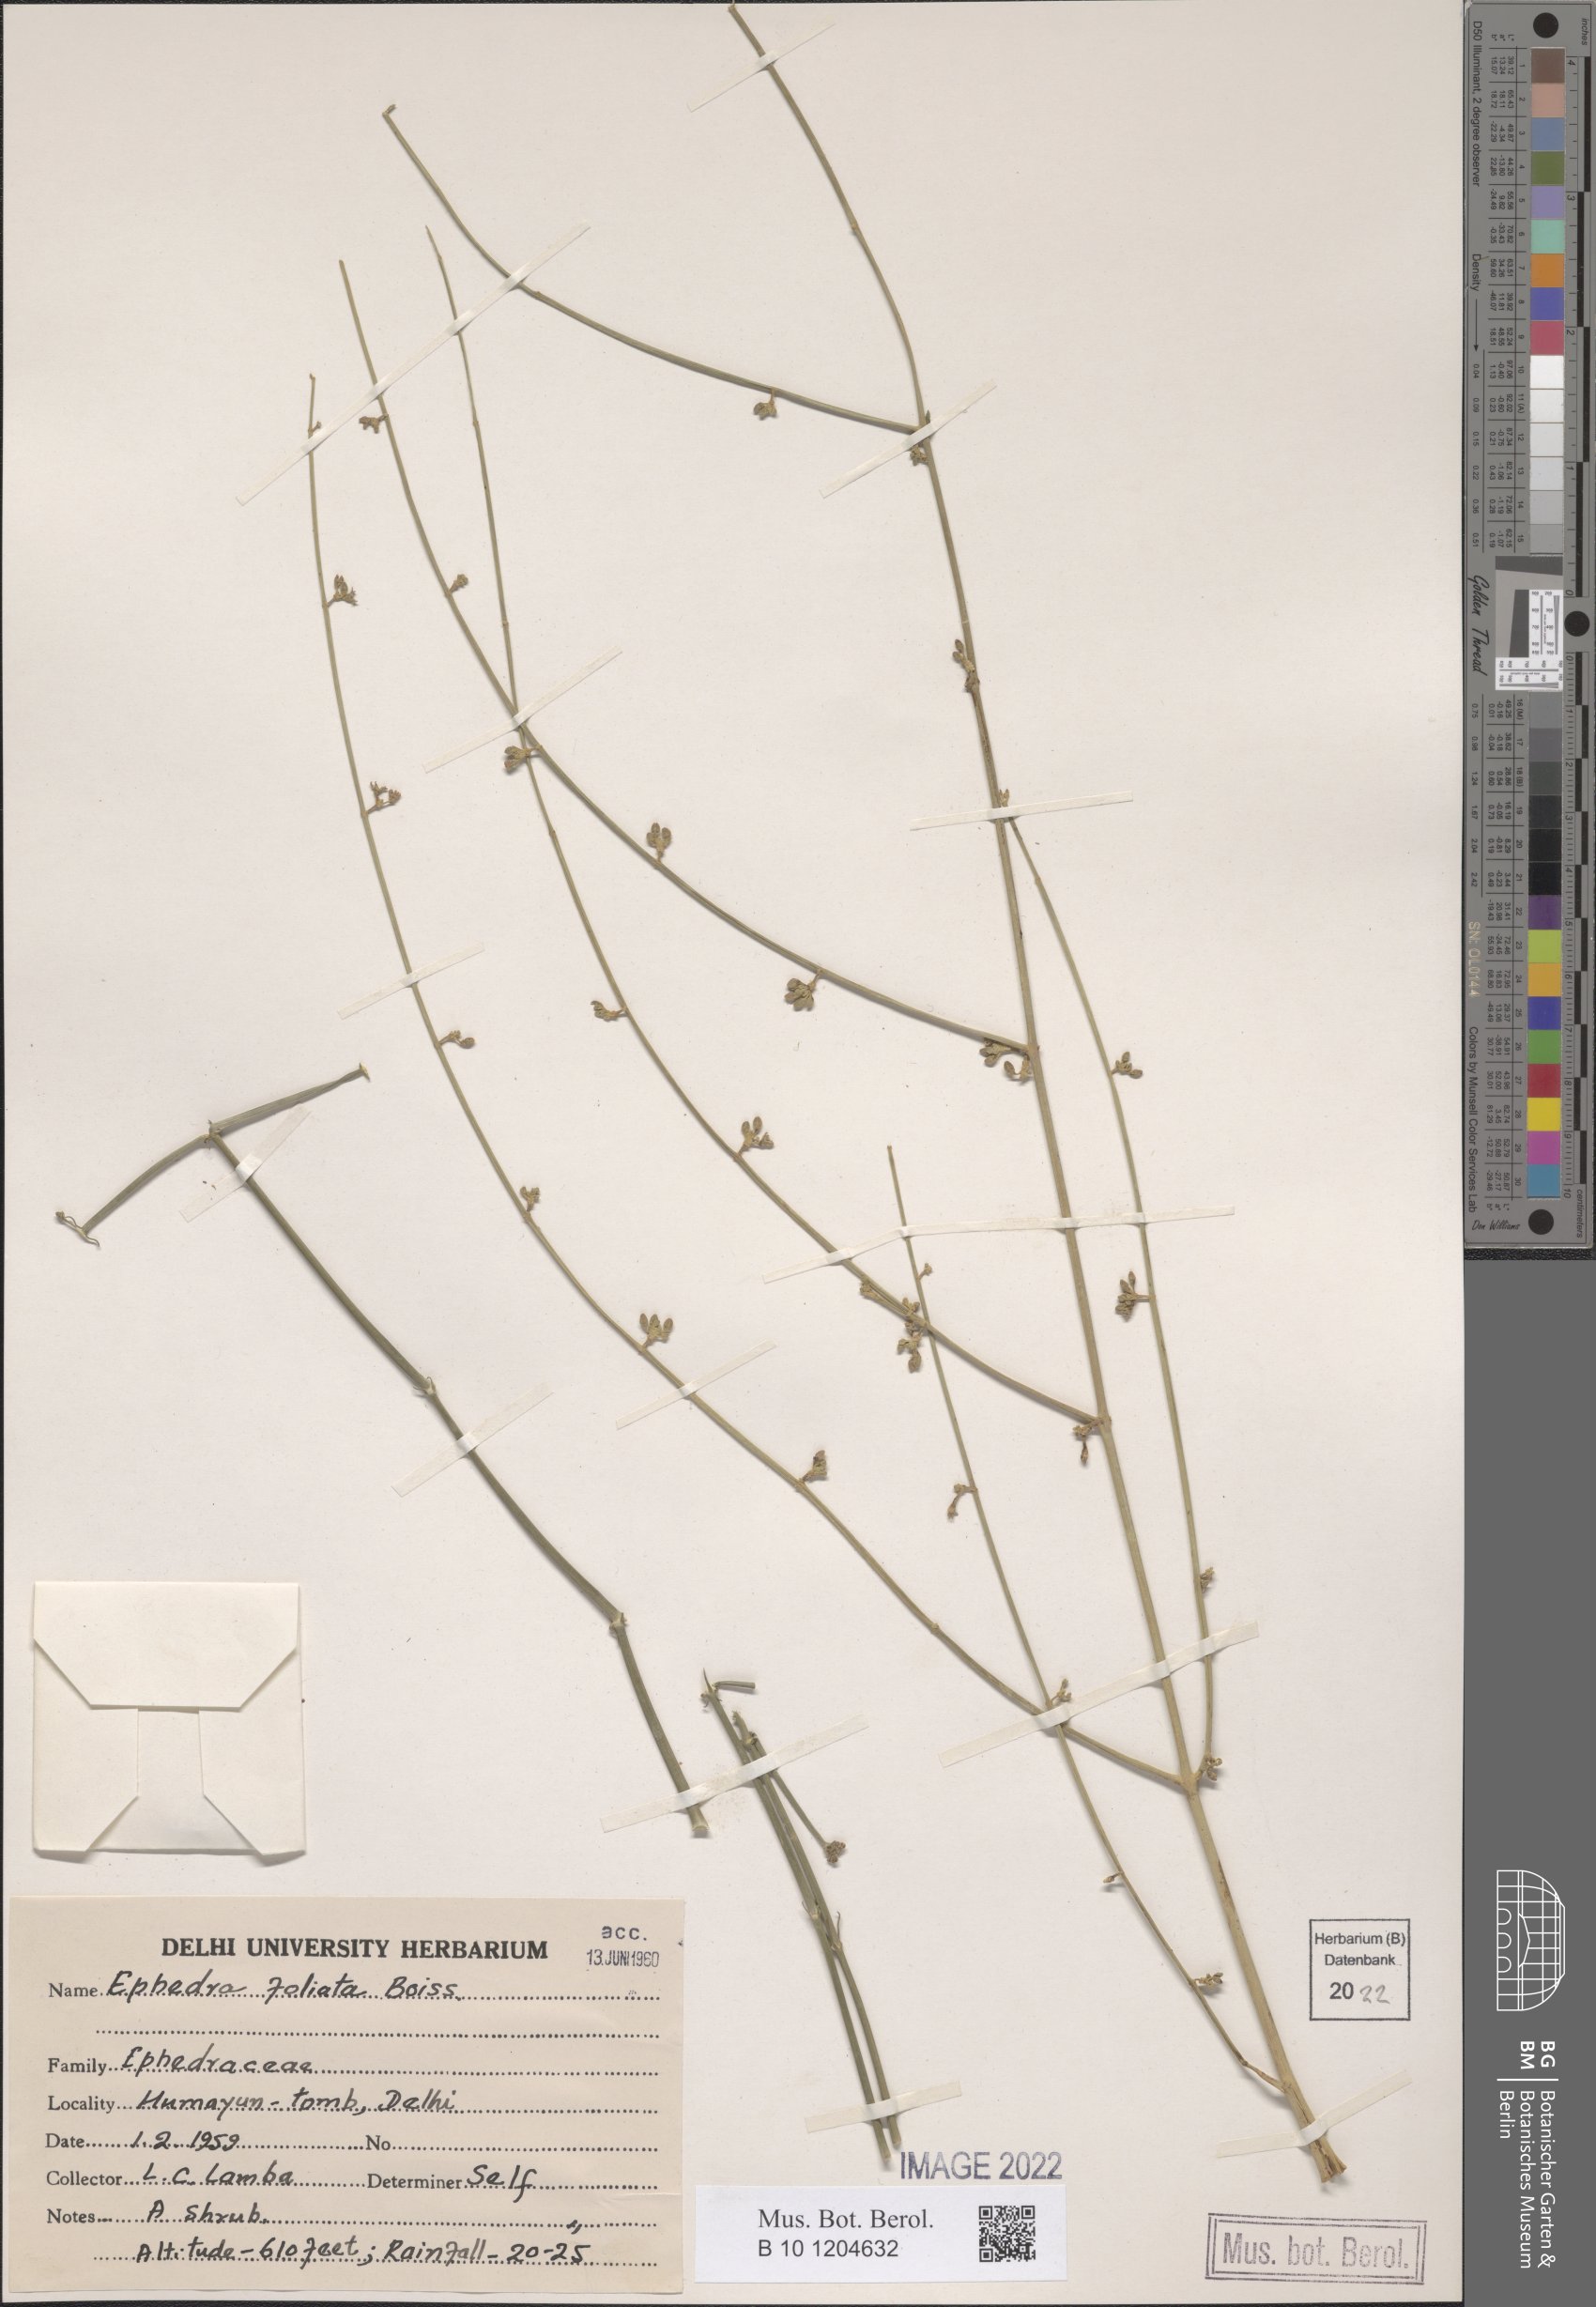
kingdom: Plantae
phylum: Tracheophyta
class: Gnetopsida
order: Ephedrales
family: Ephedraceae
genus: Ephedra
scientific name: Ephedra ciliata
